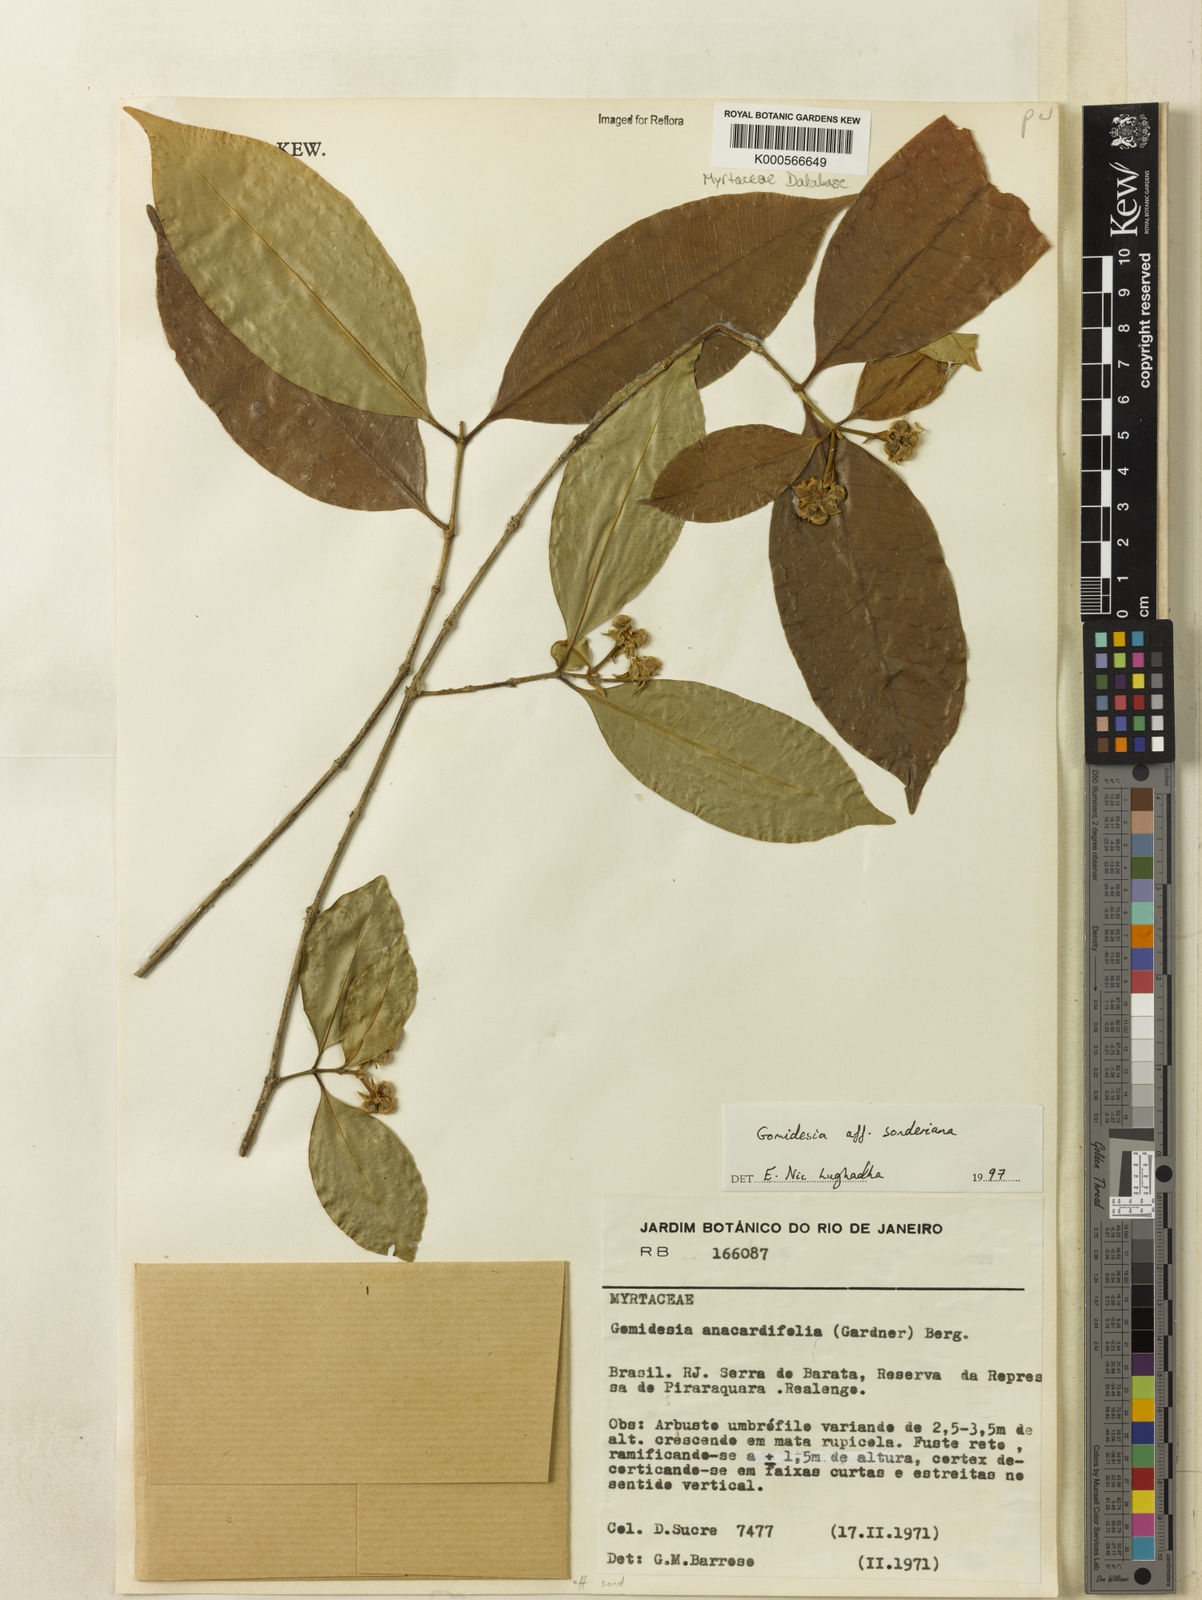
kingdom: Plantae
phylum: Tracheophyta
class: Magnoliopsida
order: Myrtales
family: Myrtaceae
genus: Myrcia
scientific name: Myrcia dolichopetala
